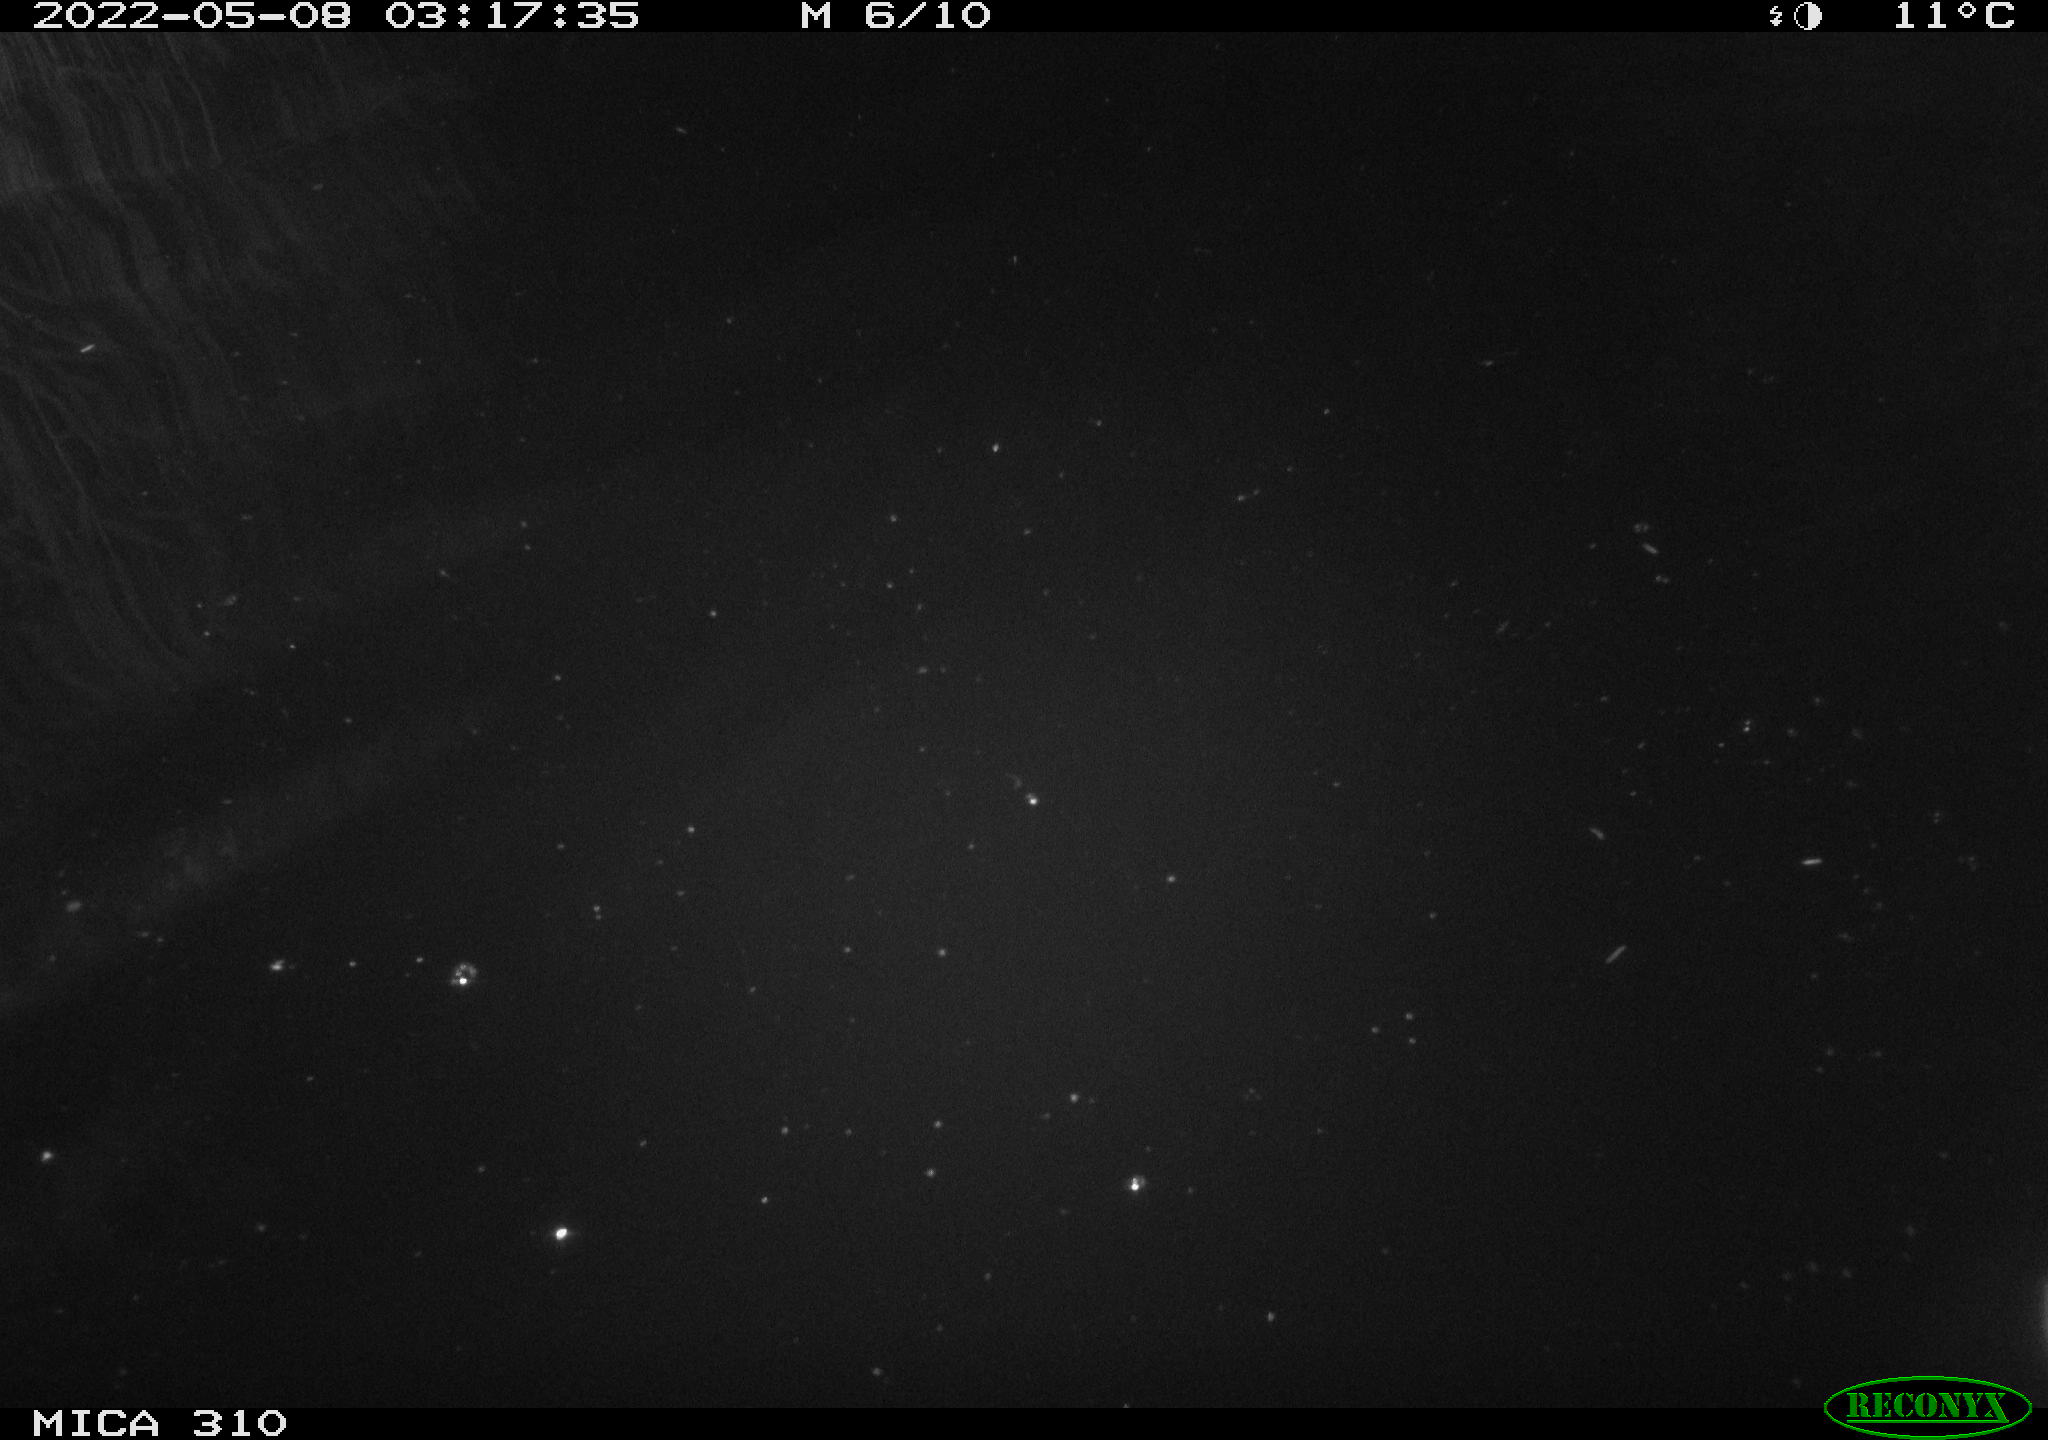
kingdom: Animalia
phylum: Chordata
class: Aves
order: Anseriformes
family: Anatidae
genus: Anas
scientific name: Anas platyrhynchos
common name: Mallard
